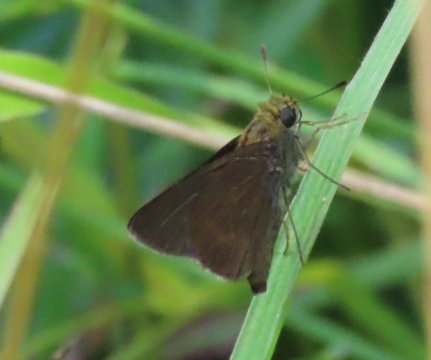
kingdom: Animalia
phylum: Arthropoda
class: Insecta
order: Lepidoptera
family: Hesperiidae
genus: Euphyes
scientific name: Euphyes vestris
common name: Dun Skipper
